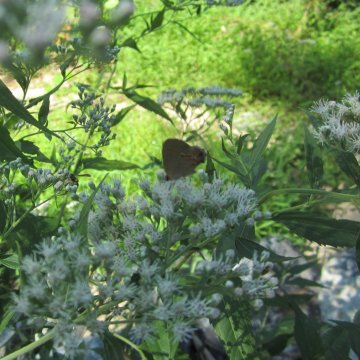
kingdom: Animalia
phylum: Arthropoda
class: Insecta
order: Lepidoptera
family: Lycaenidae
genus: Calycopis
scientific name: Calycopis cecrops
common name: Red-banded Hairstreak
